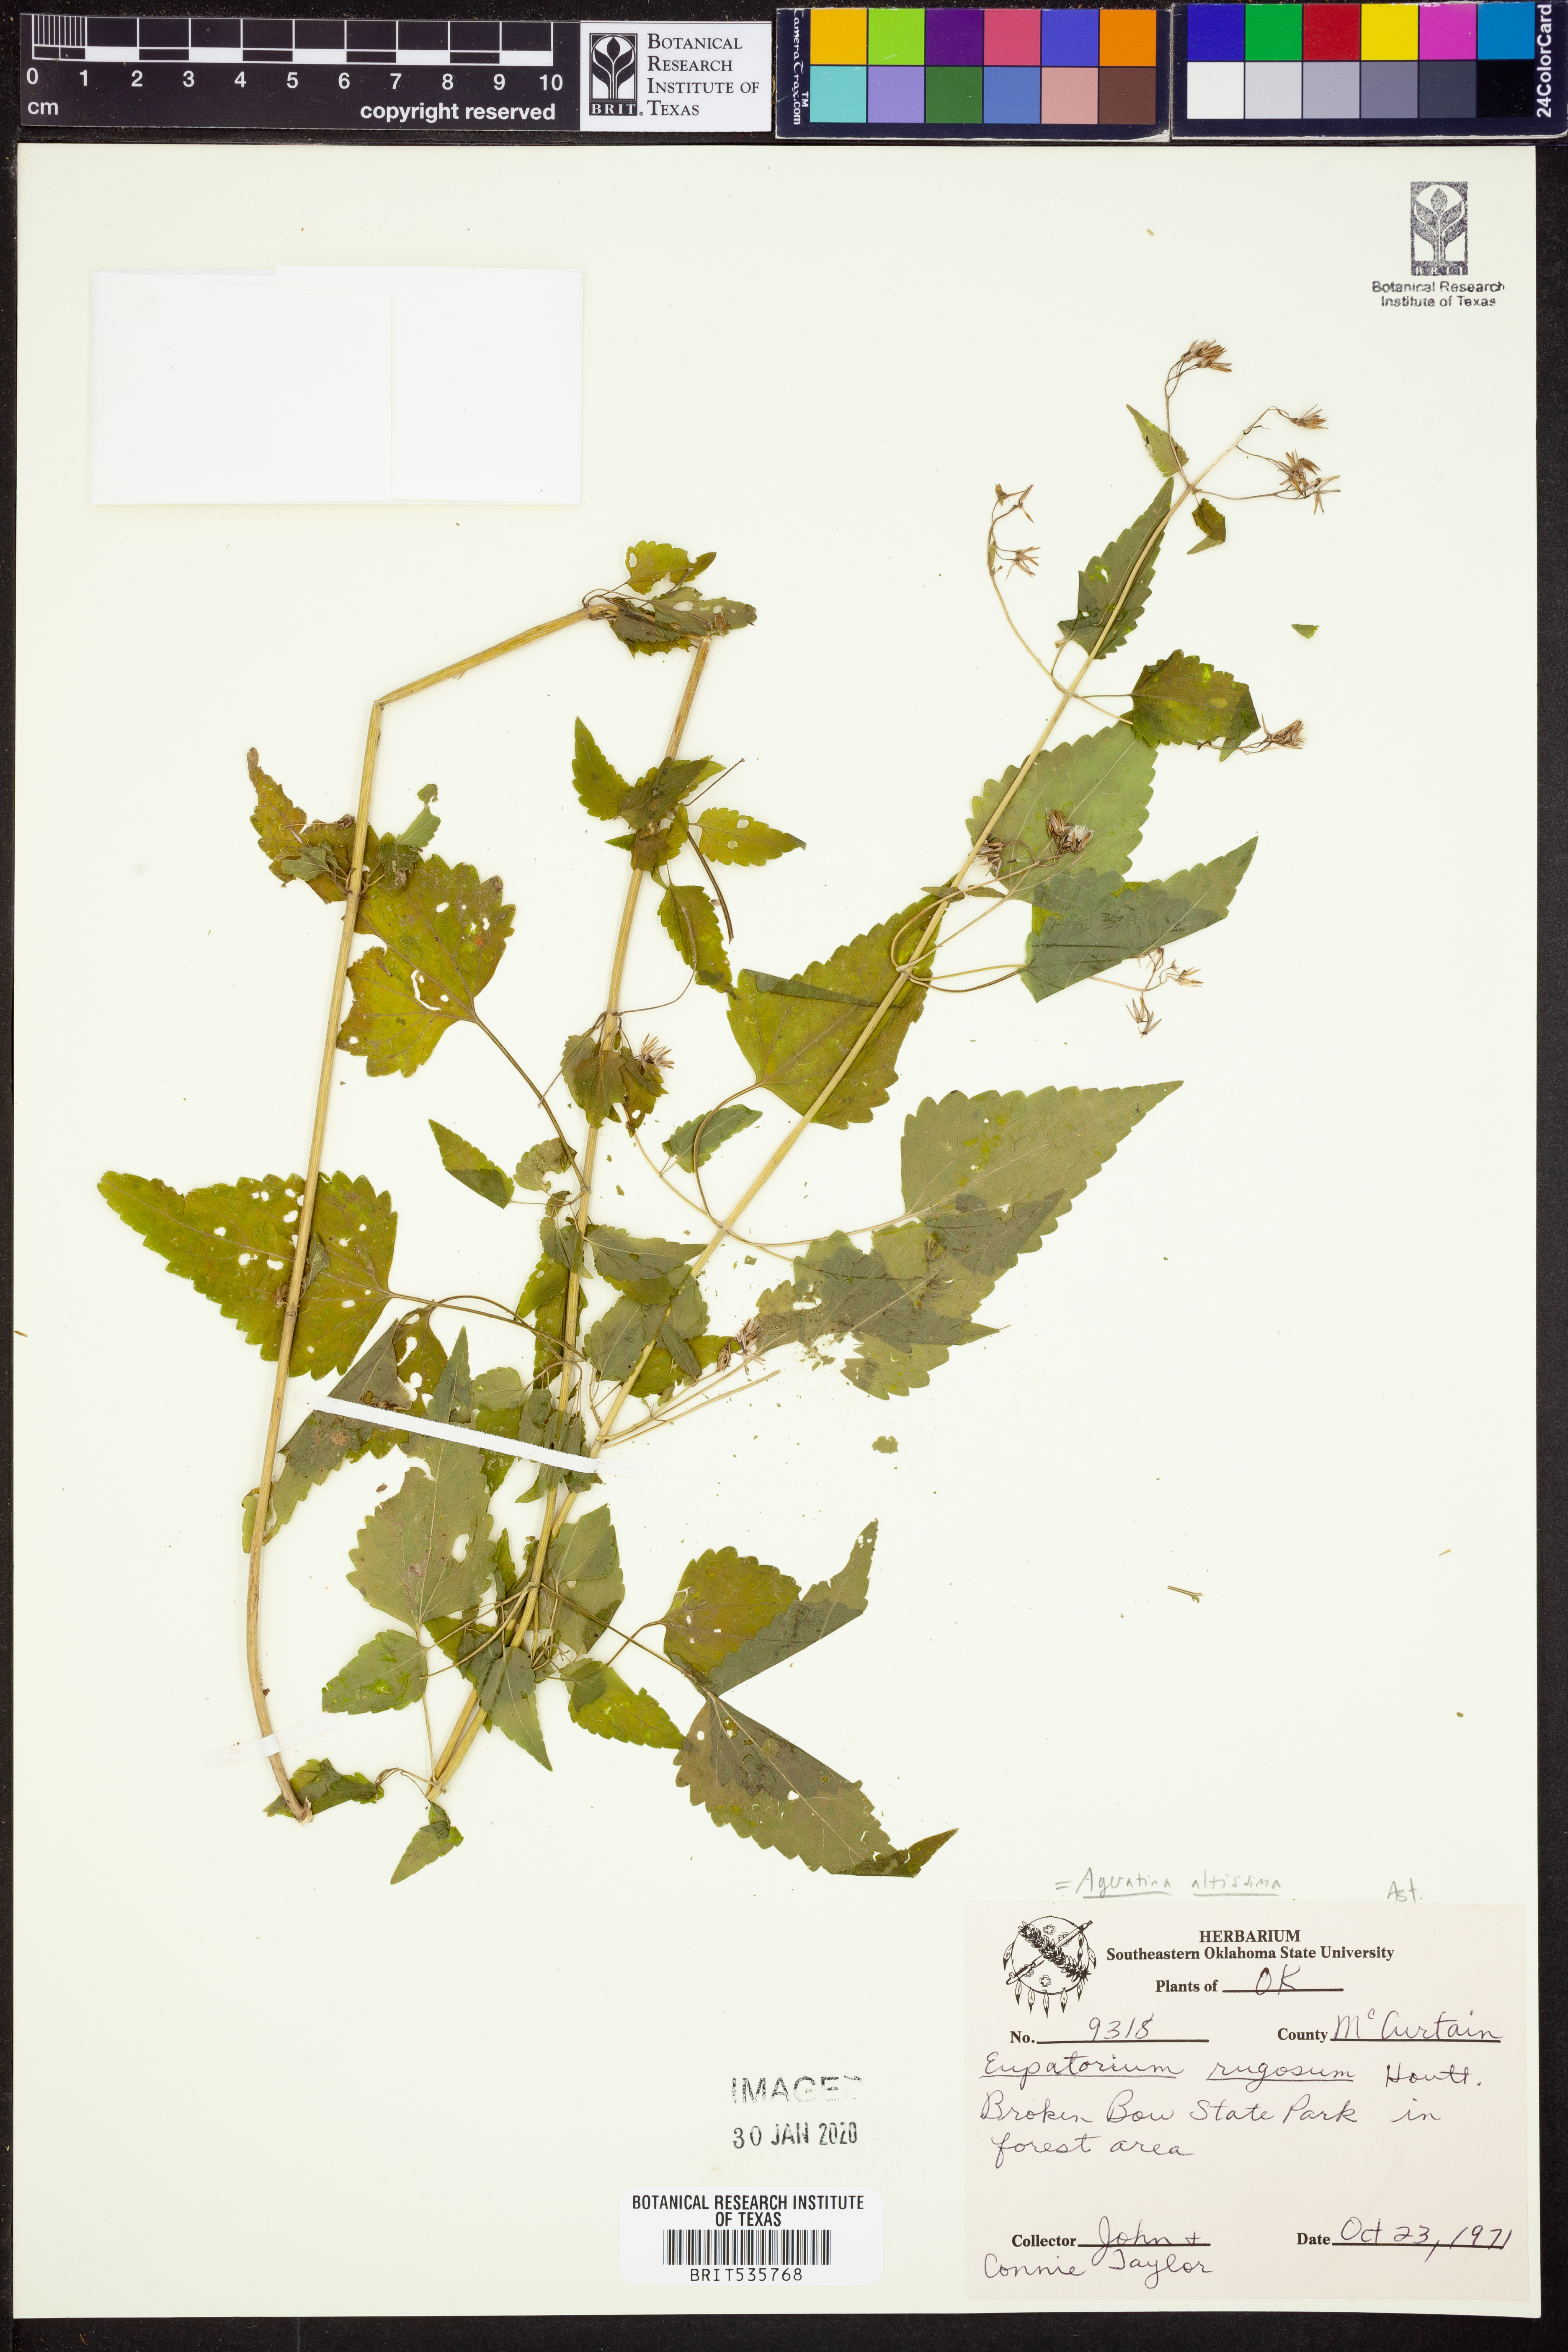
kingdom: Plantae
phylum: Tracheophyta
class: Magnoliopsida
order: Asterales
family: Asteraceae
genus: Ageratina
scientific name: Ageratina altissima
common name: White snakeroot
